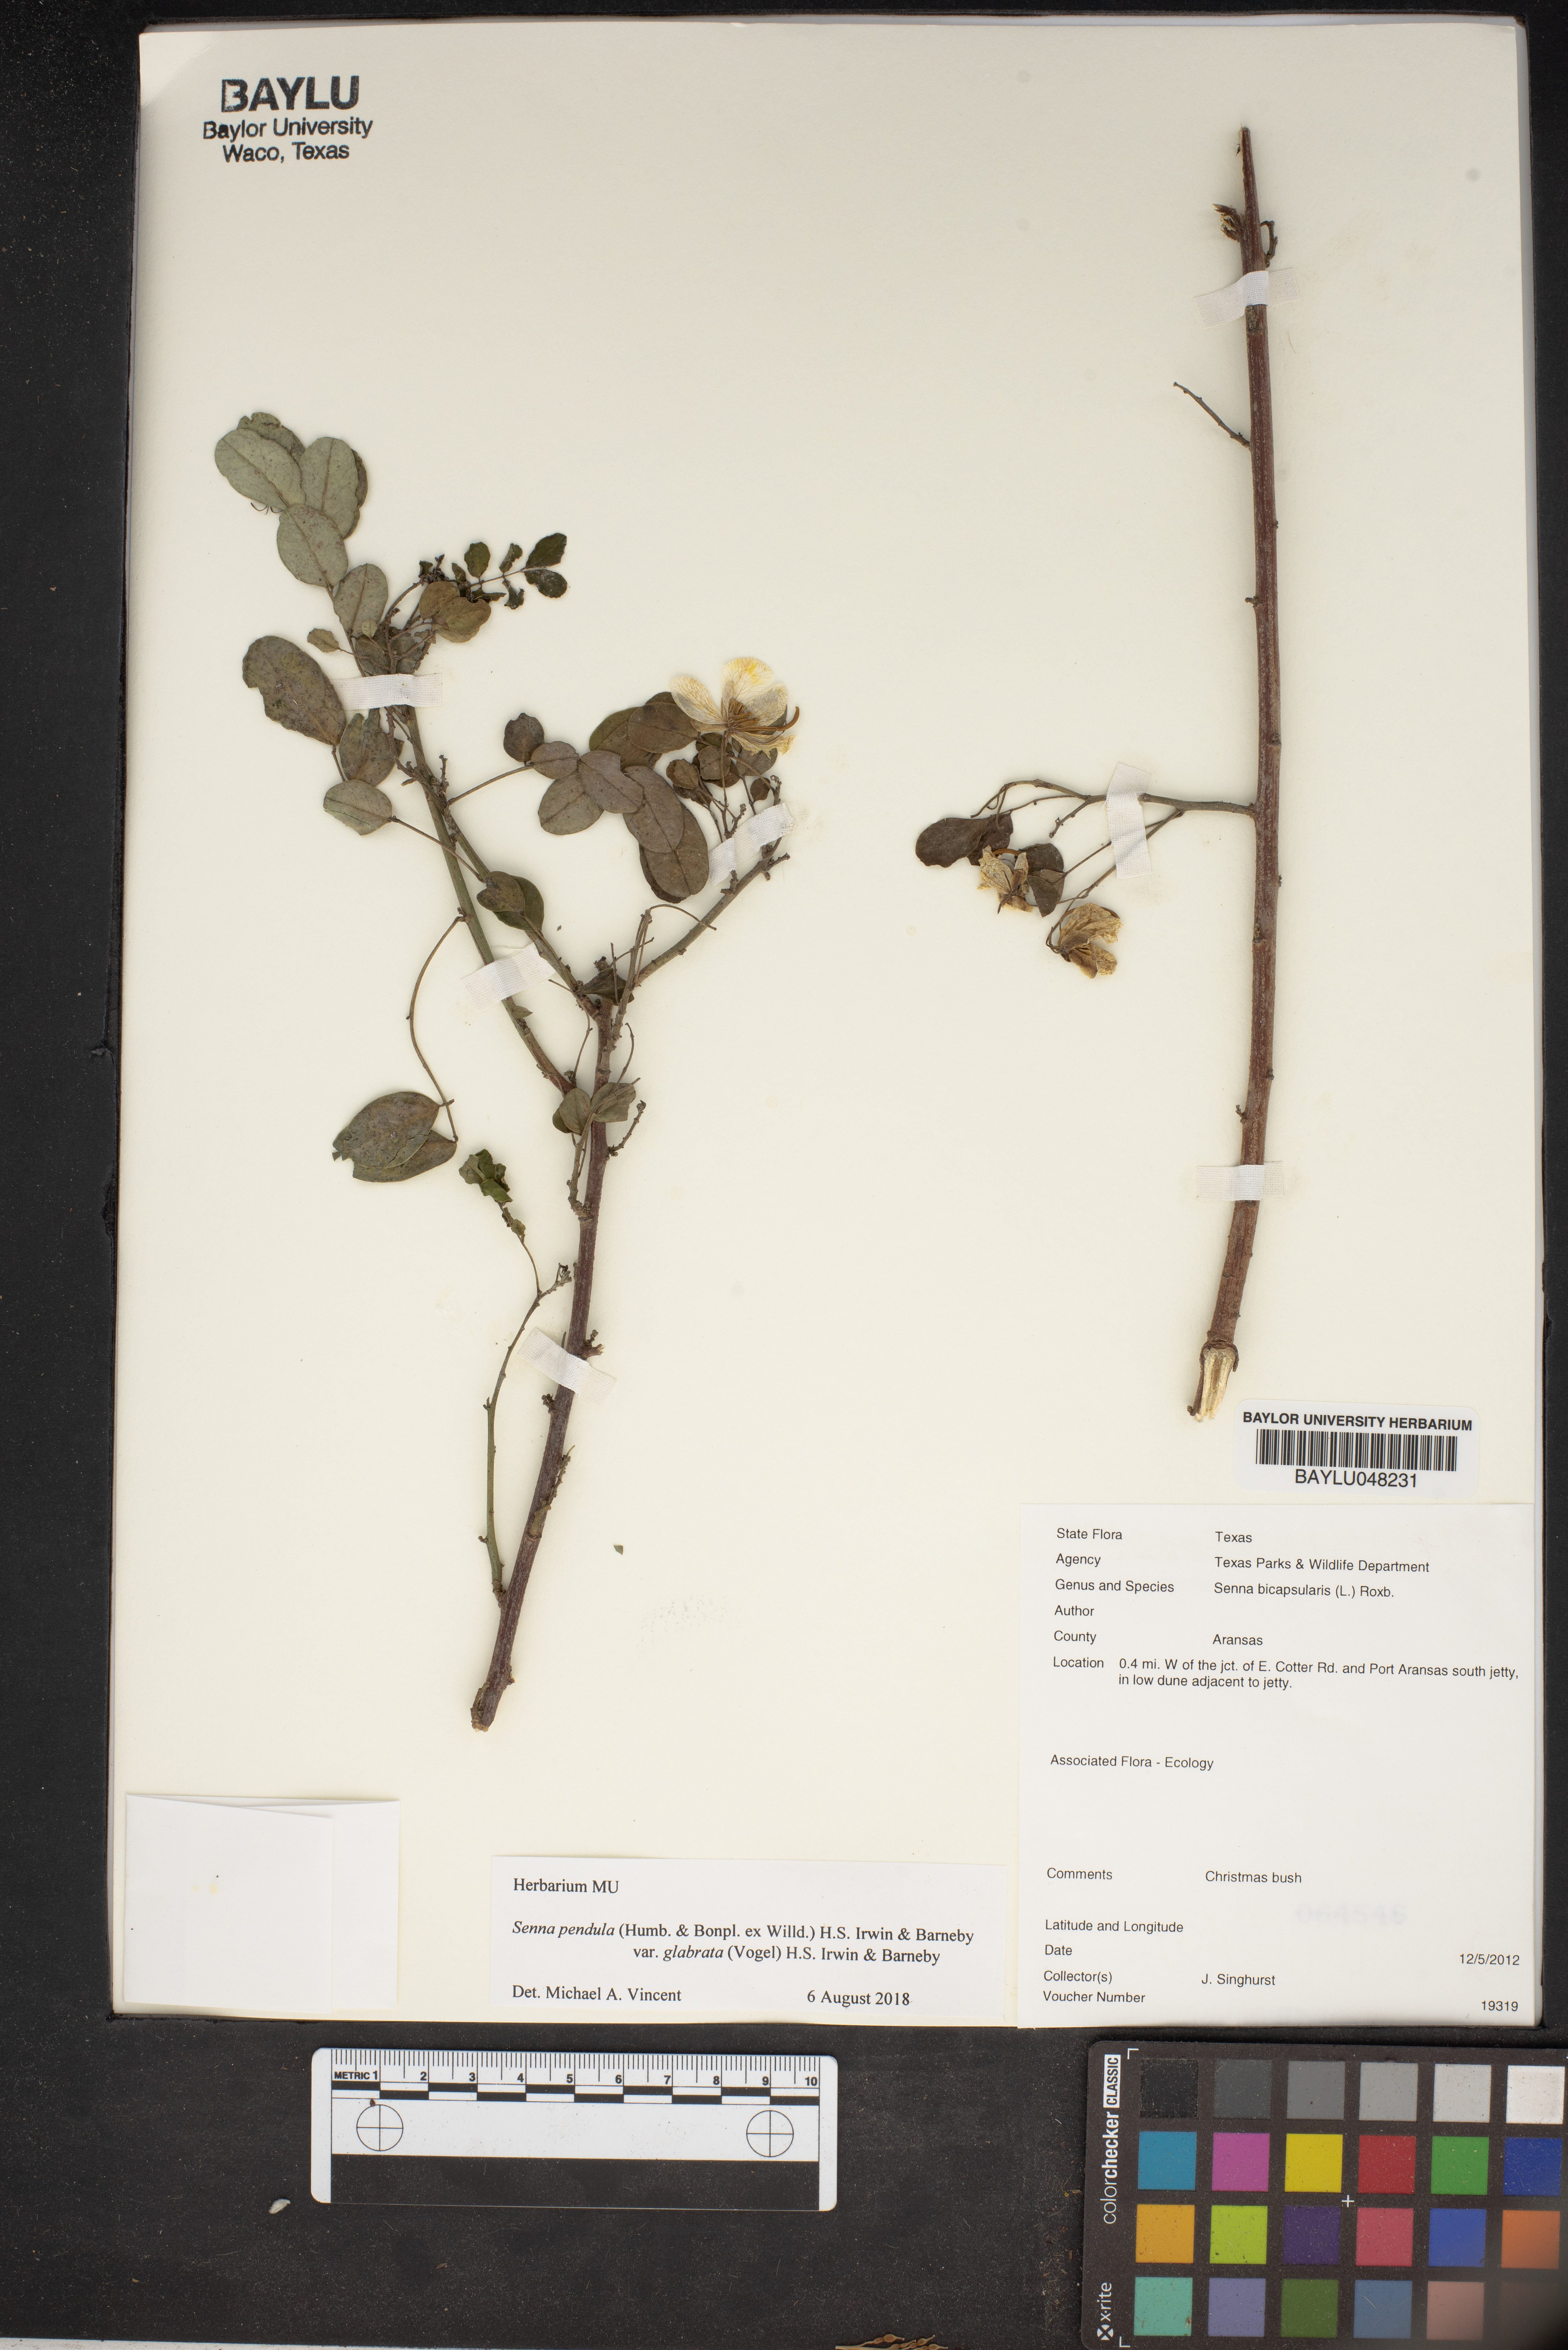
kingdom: Plantae
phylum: Tracheophyta
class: Magnoliopsida
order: Fabales
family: Fabaceae
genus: Senna
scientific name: Senna bicapsularis
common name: Christmasbush
